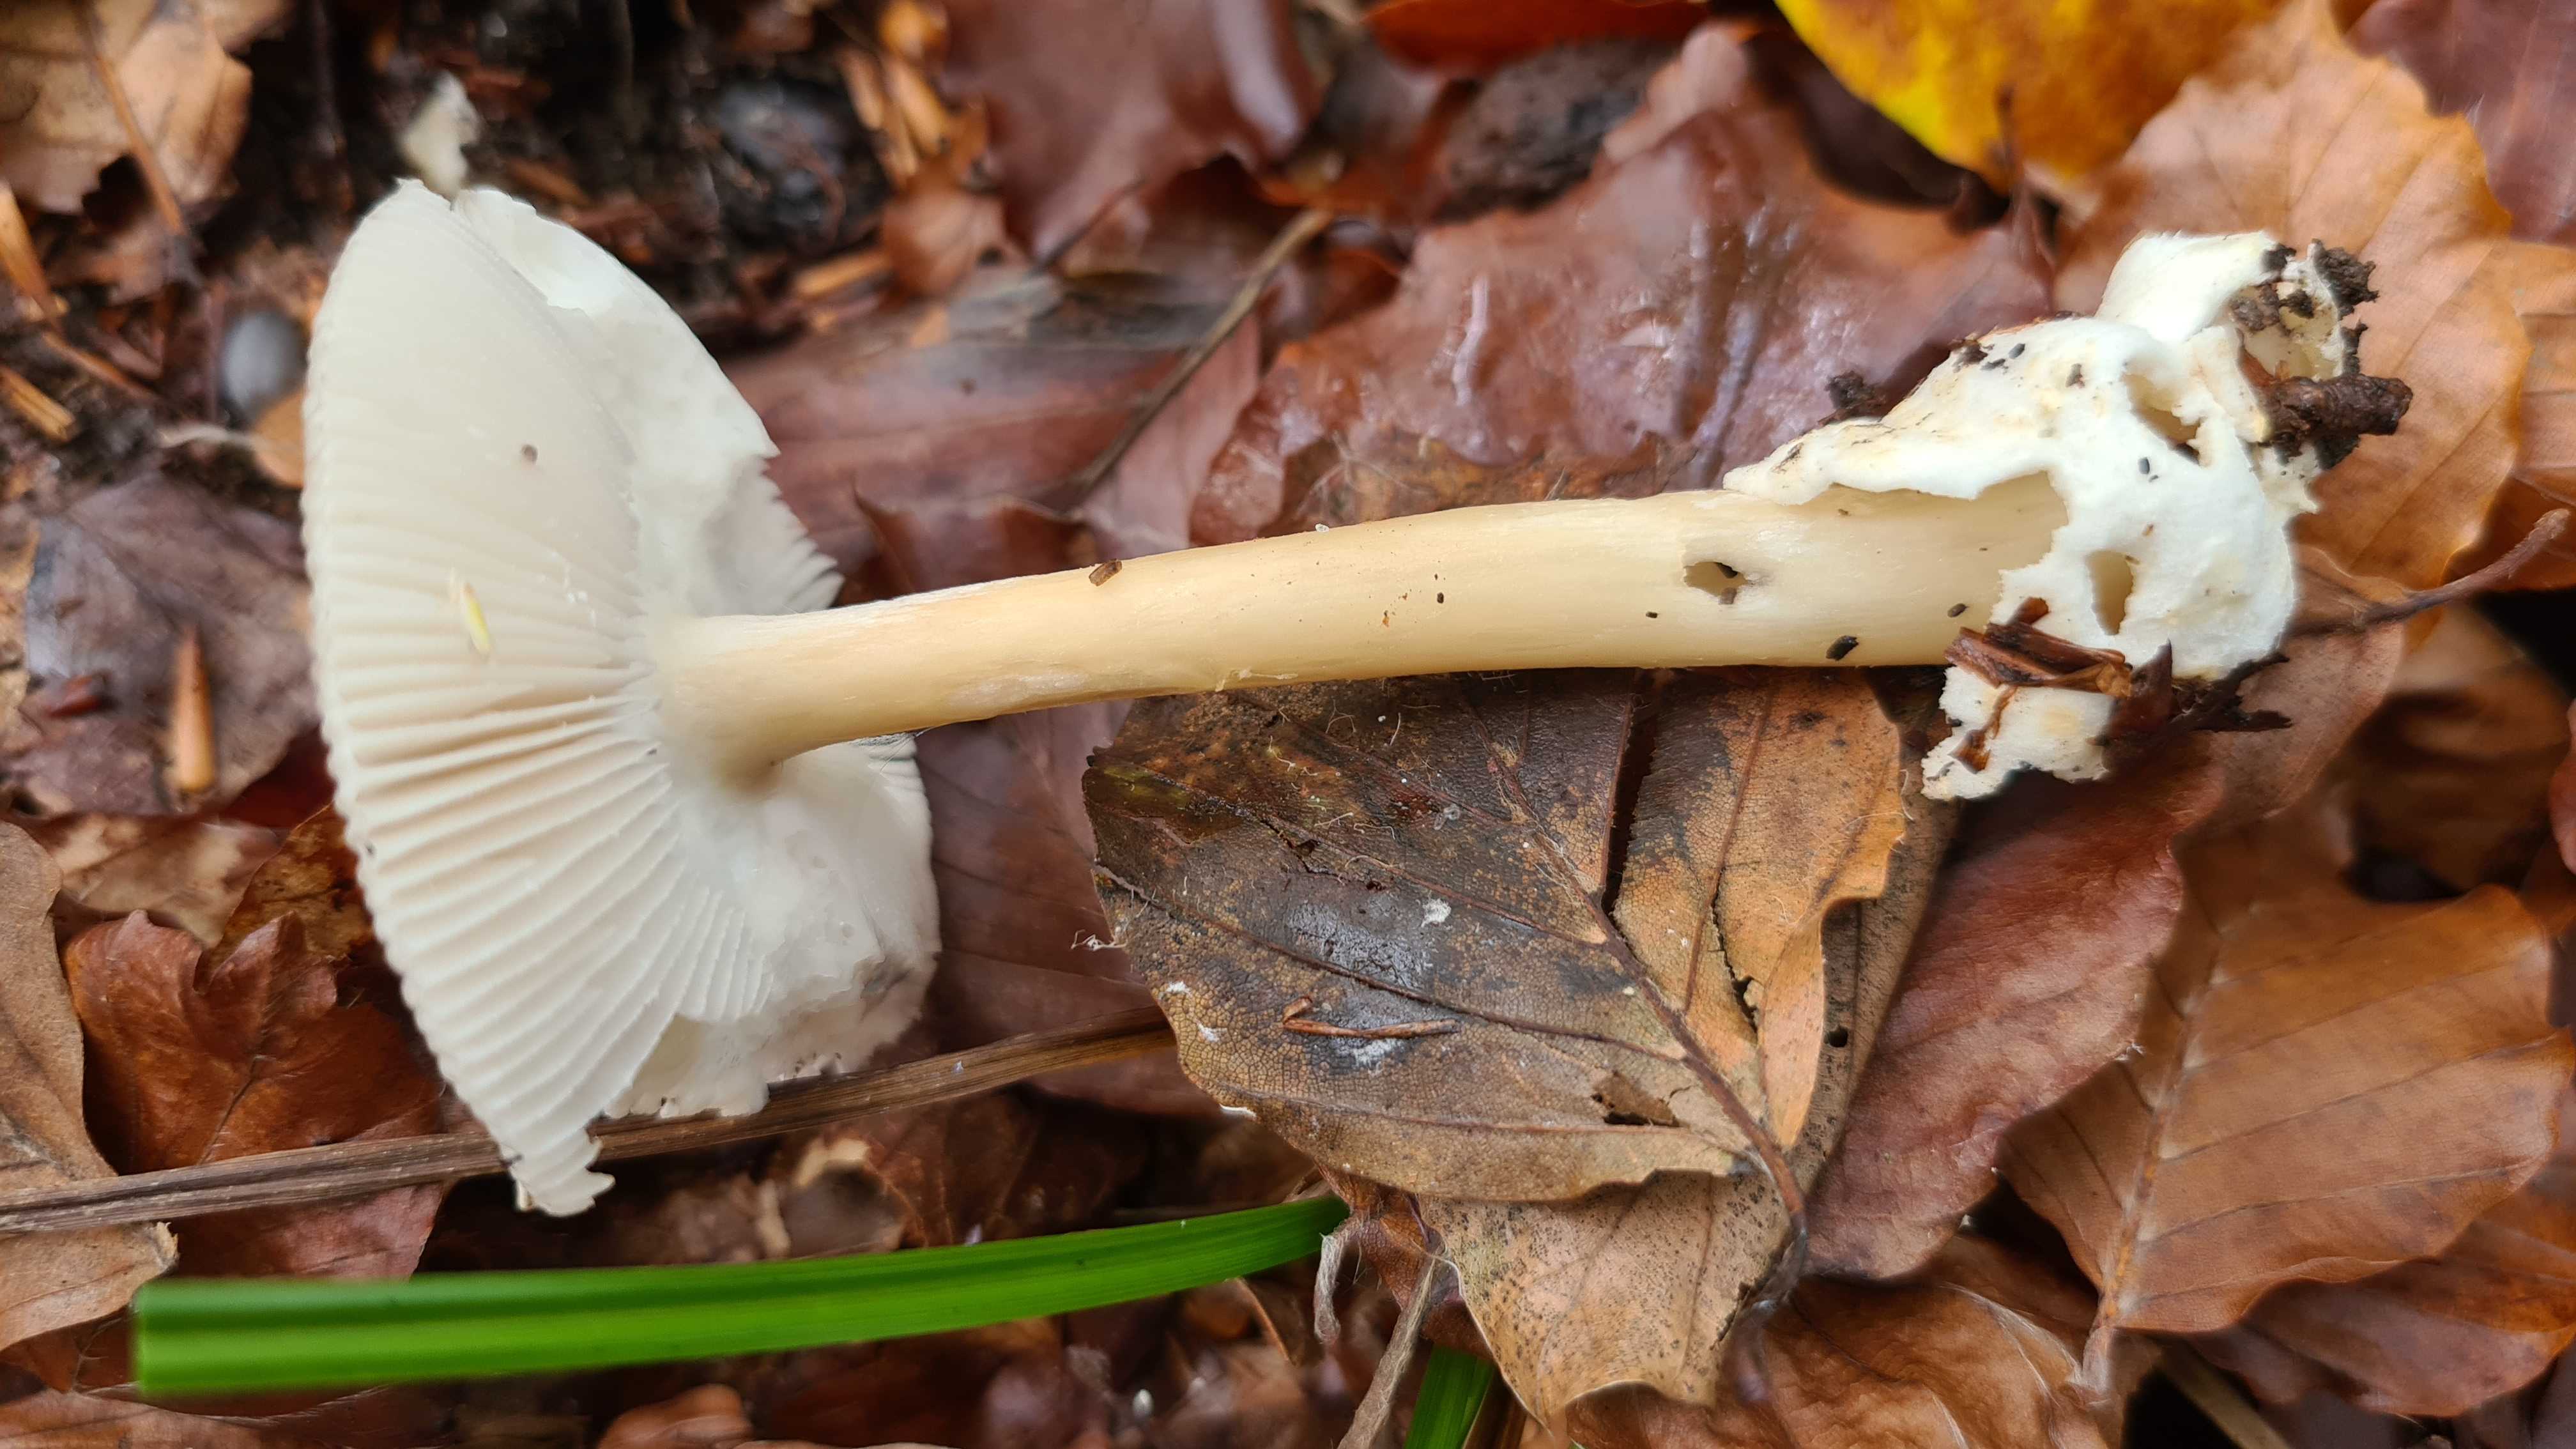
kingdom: Fungi
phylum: Basidiomycota
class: Agaricomycetes
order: Agaricales
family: Amanitaceae
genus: Amanita
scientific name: Amanita vaginata
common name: grå kam-fluesvamp
